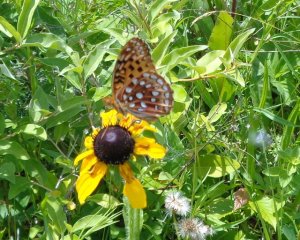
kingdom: Animalia
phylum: Arthropoda
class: Insecta
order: Lepidoptera
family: Nymphalidae
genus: Speyeria
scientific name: Speyeria aphrodite
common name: Aphrodite Fritillary
